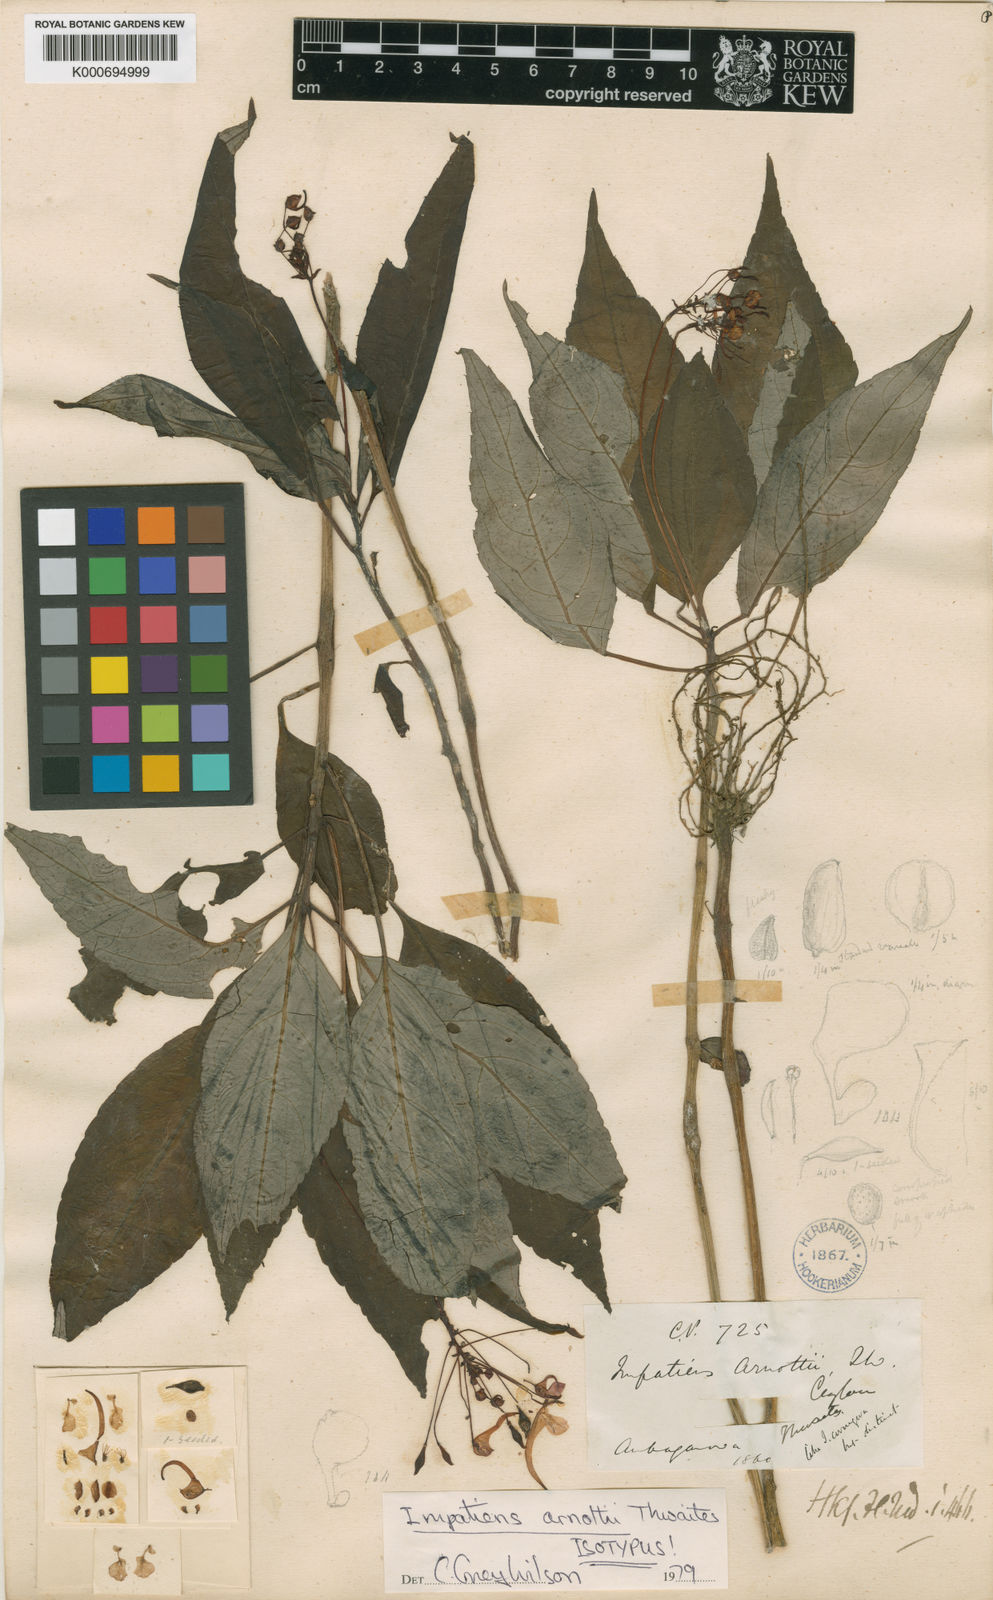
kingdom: Plantae
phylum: Tracheophyta
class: Magnoliopsida
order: Ericales
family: Balsaminaceae
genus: Impatiens
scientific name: Impatiens arnottii
